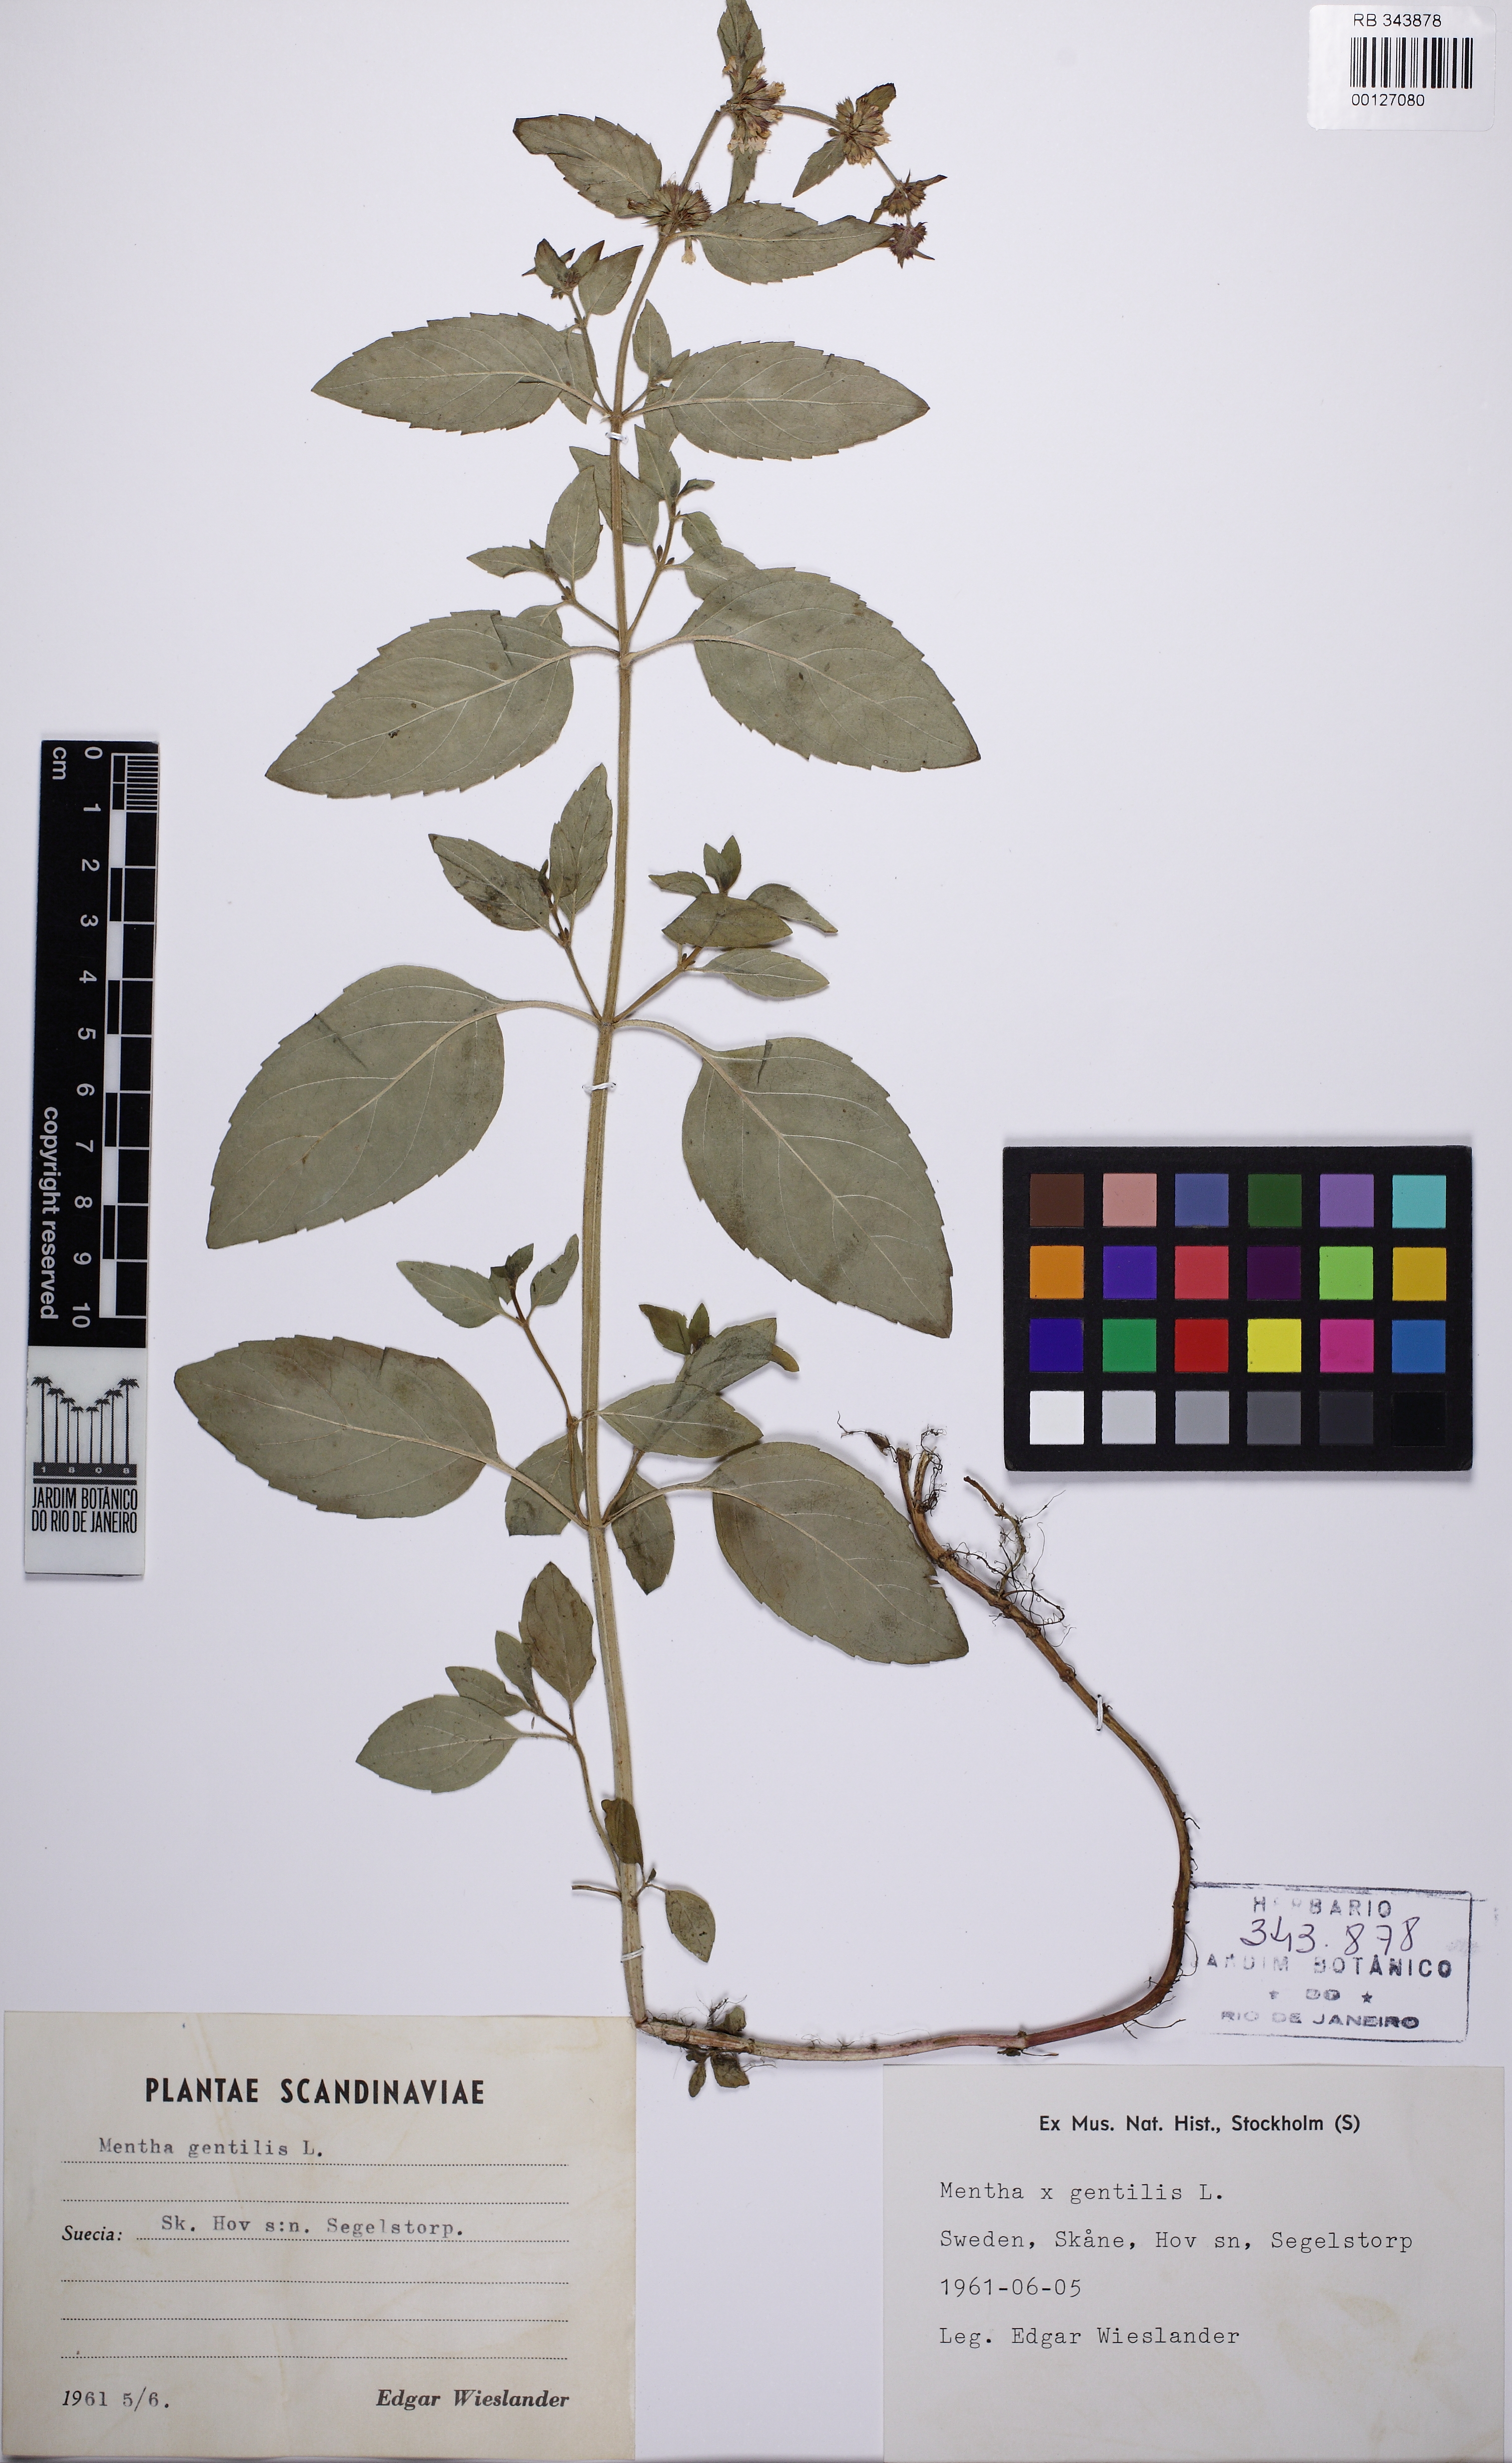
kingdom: Plantae
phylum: Tracheophyta
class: Magnoliopsida
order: Lamiales
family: Lamiaceae
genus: Mentha
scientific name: Mentha arvensis
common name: Corn mint
